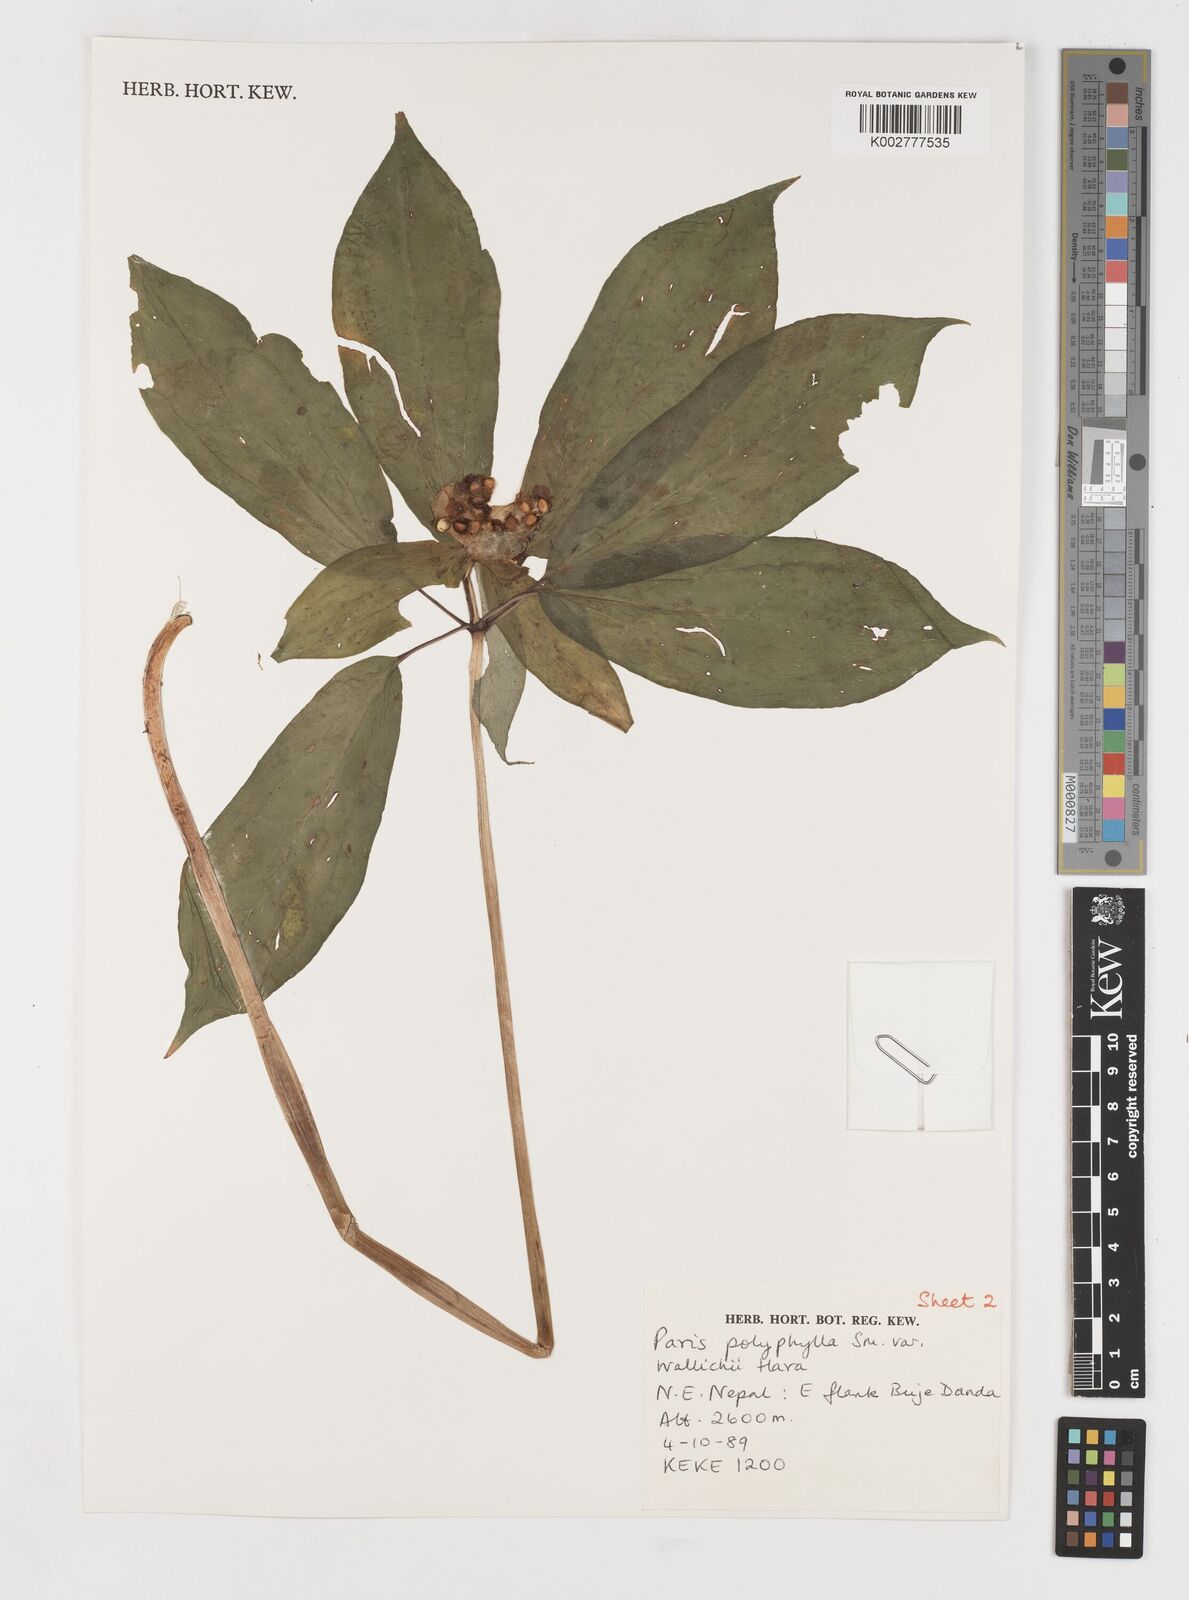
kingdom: Plantae
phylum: Tracheophyta
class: Liliopsida
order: Liliales
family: Melanthiaceae
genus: Paris
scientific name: Paris polyphylla
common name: Love apple
